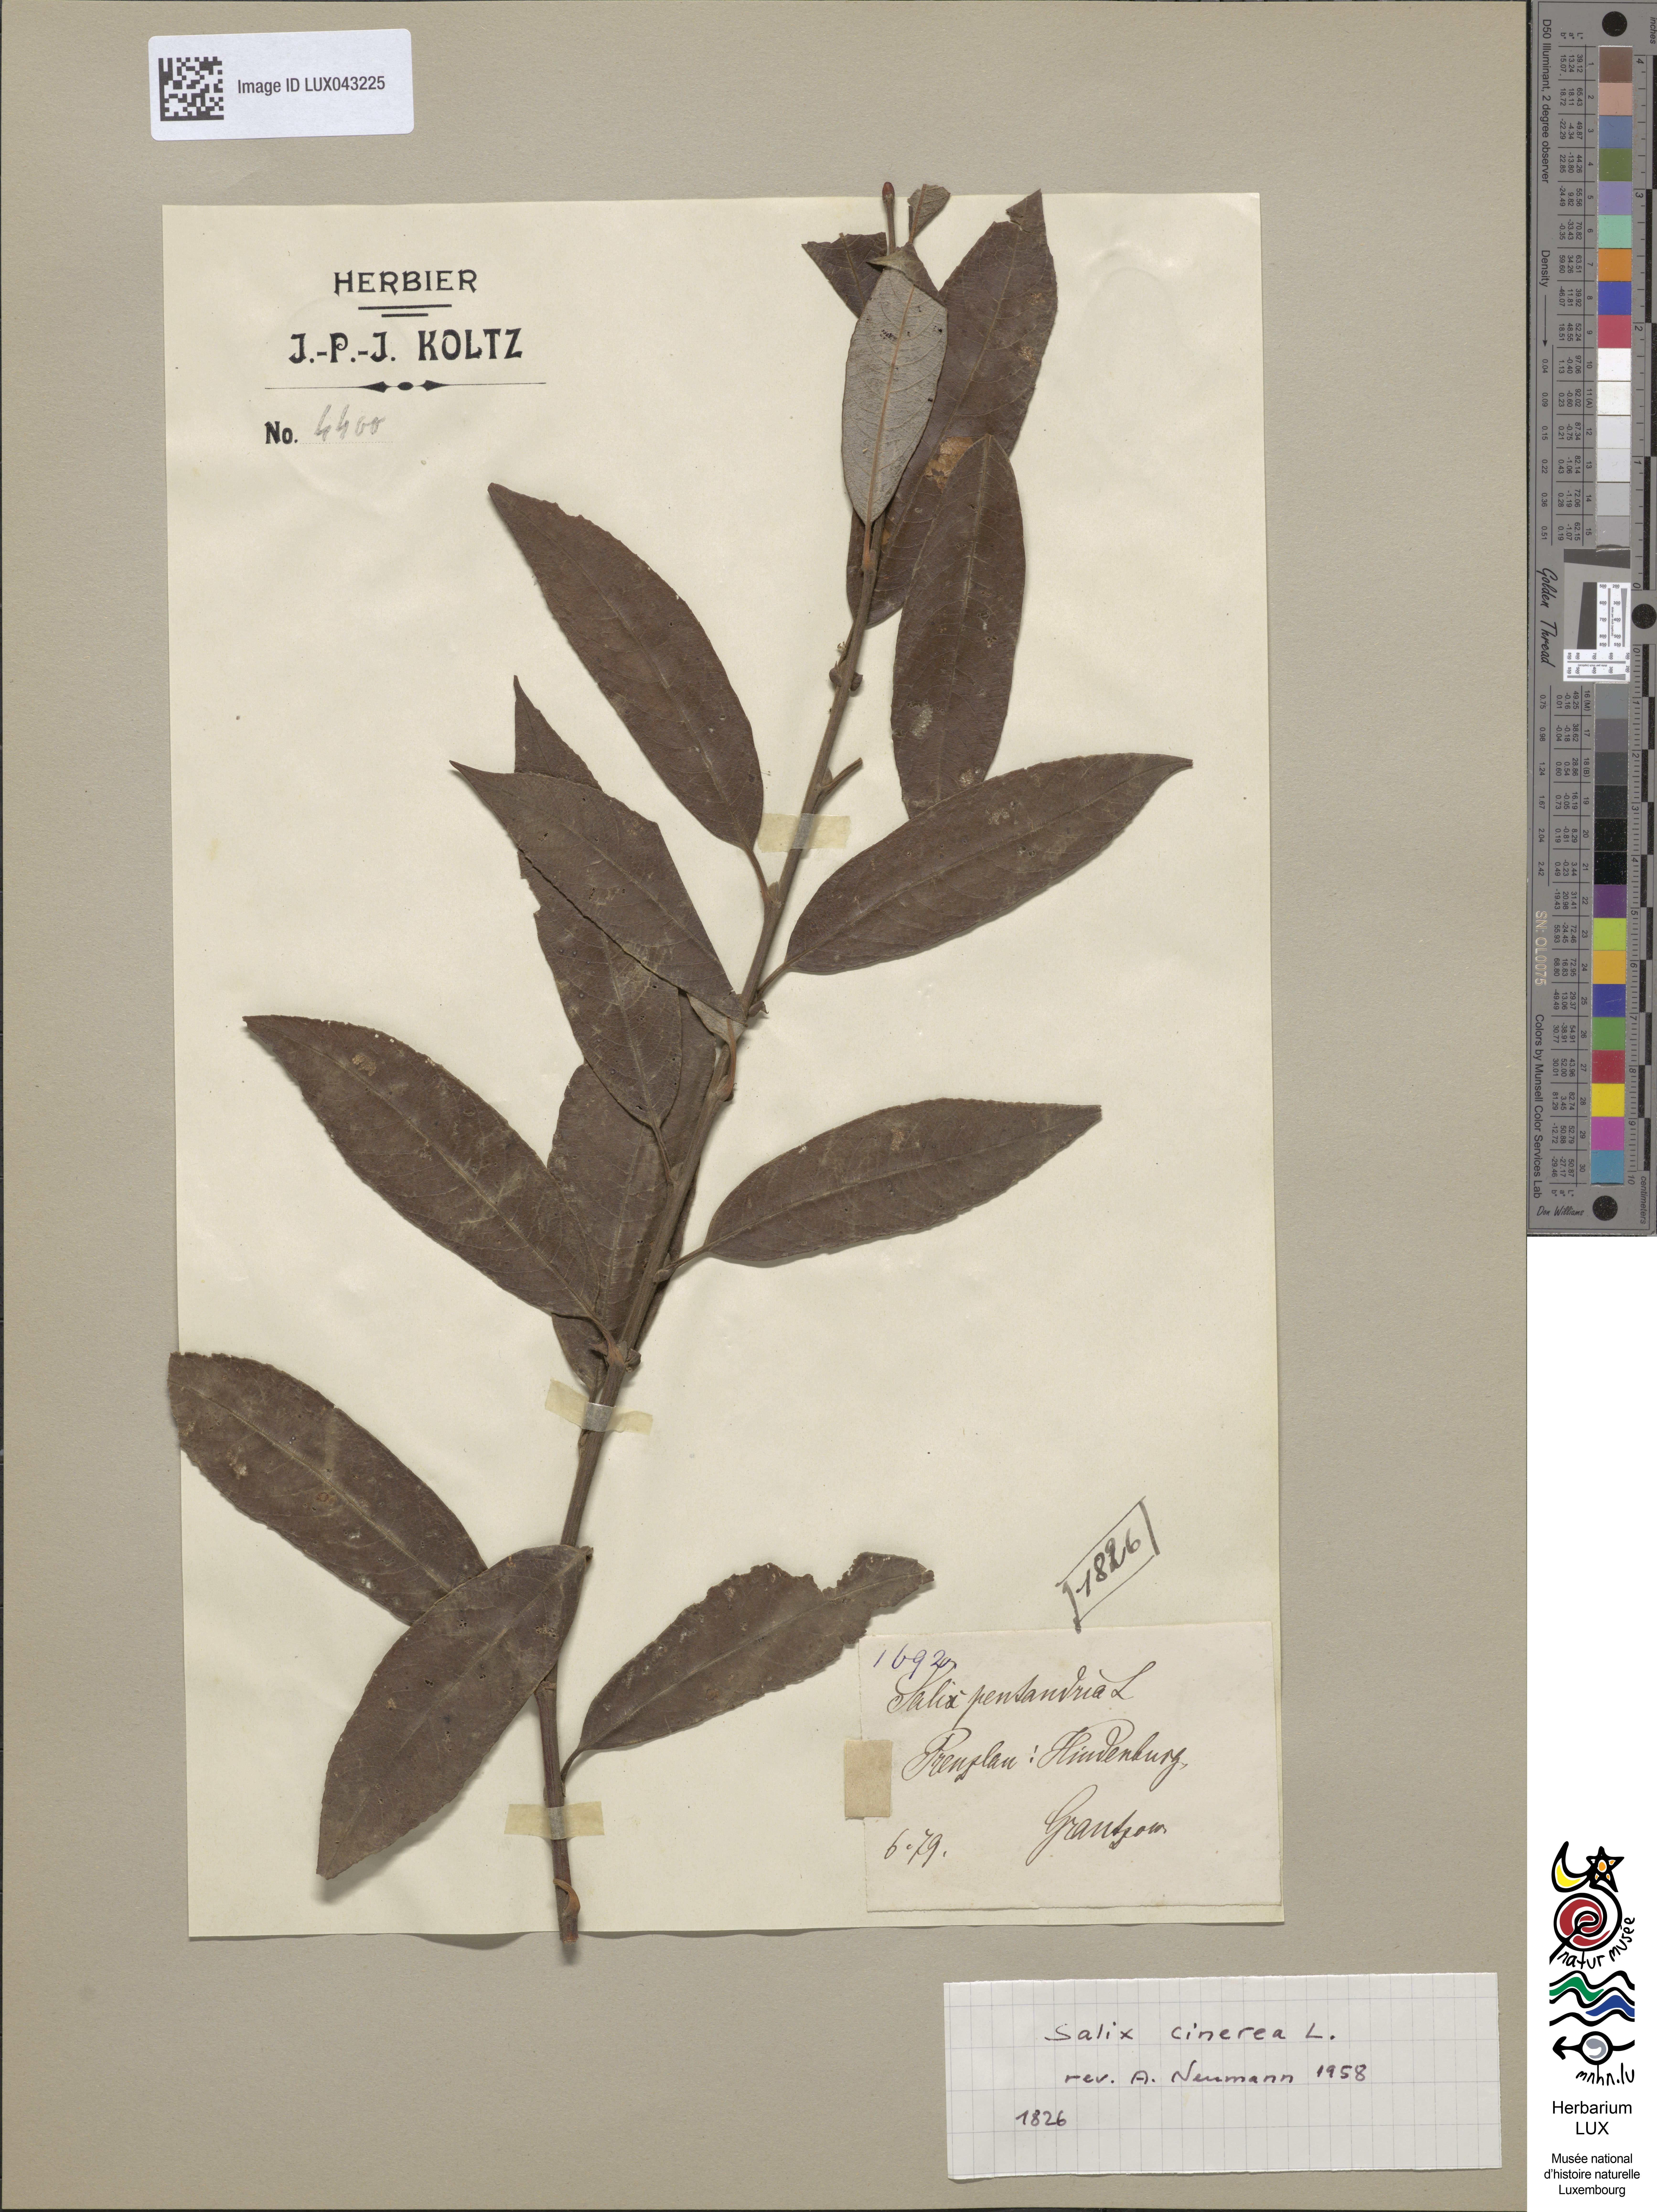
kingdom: Plantae
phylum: Tracheophyta
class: Magnoliopsida
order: Malpighiales
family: Salicaceae
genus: Salix
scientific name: Salix cinerea
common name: Common sallow
